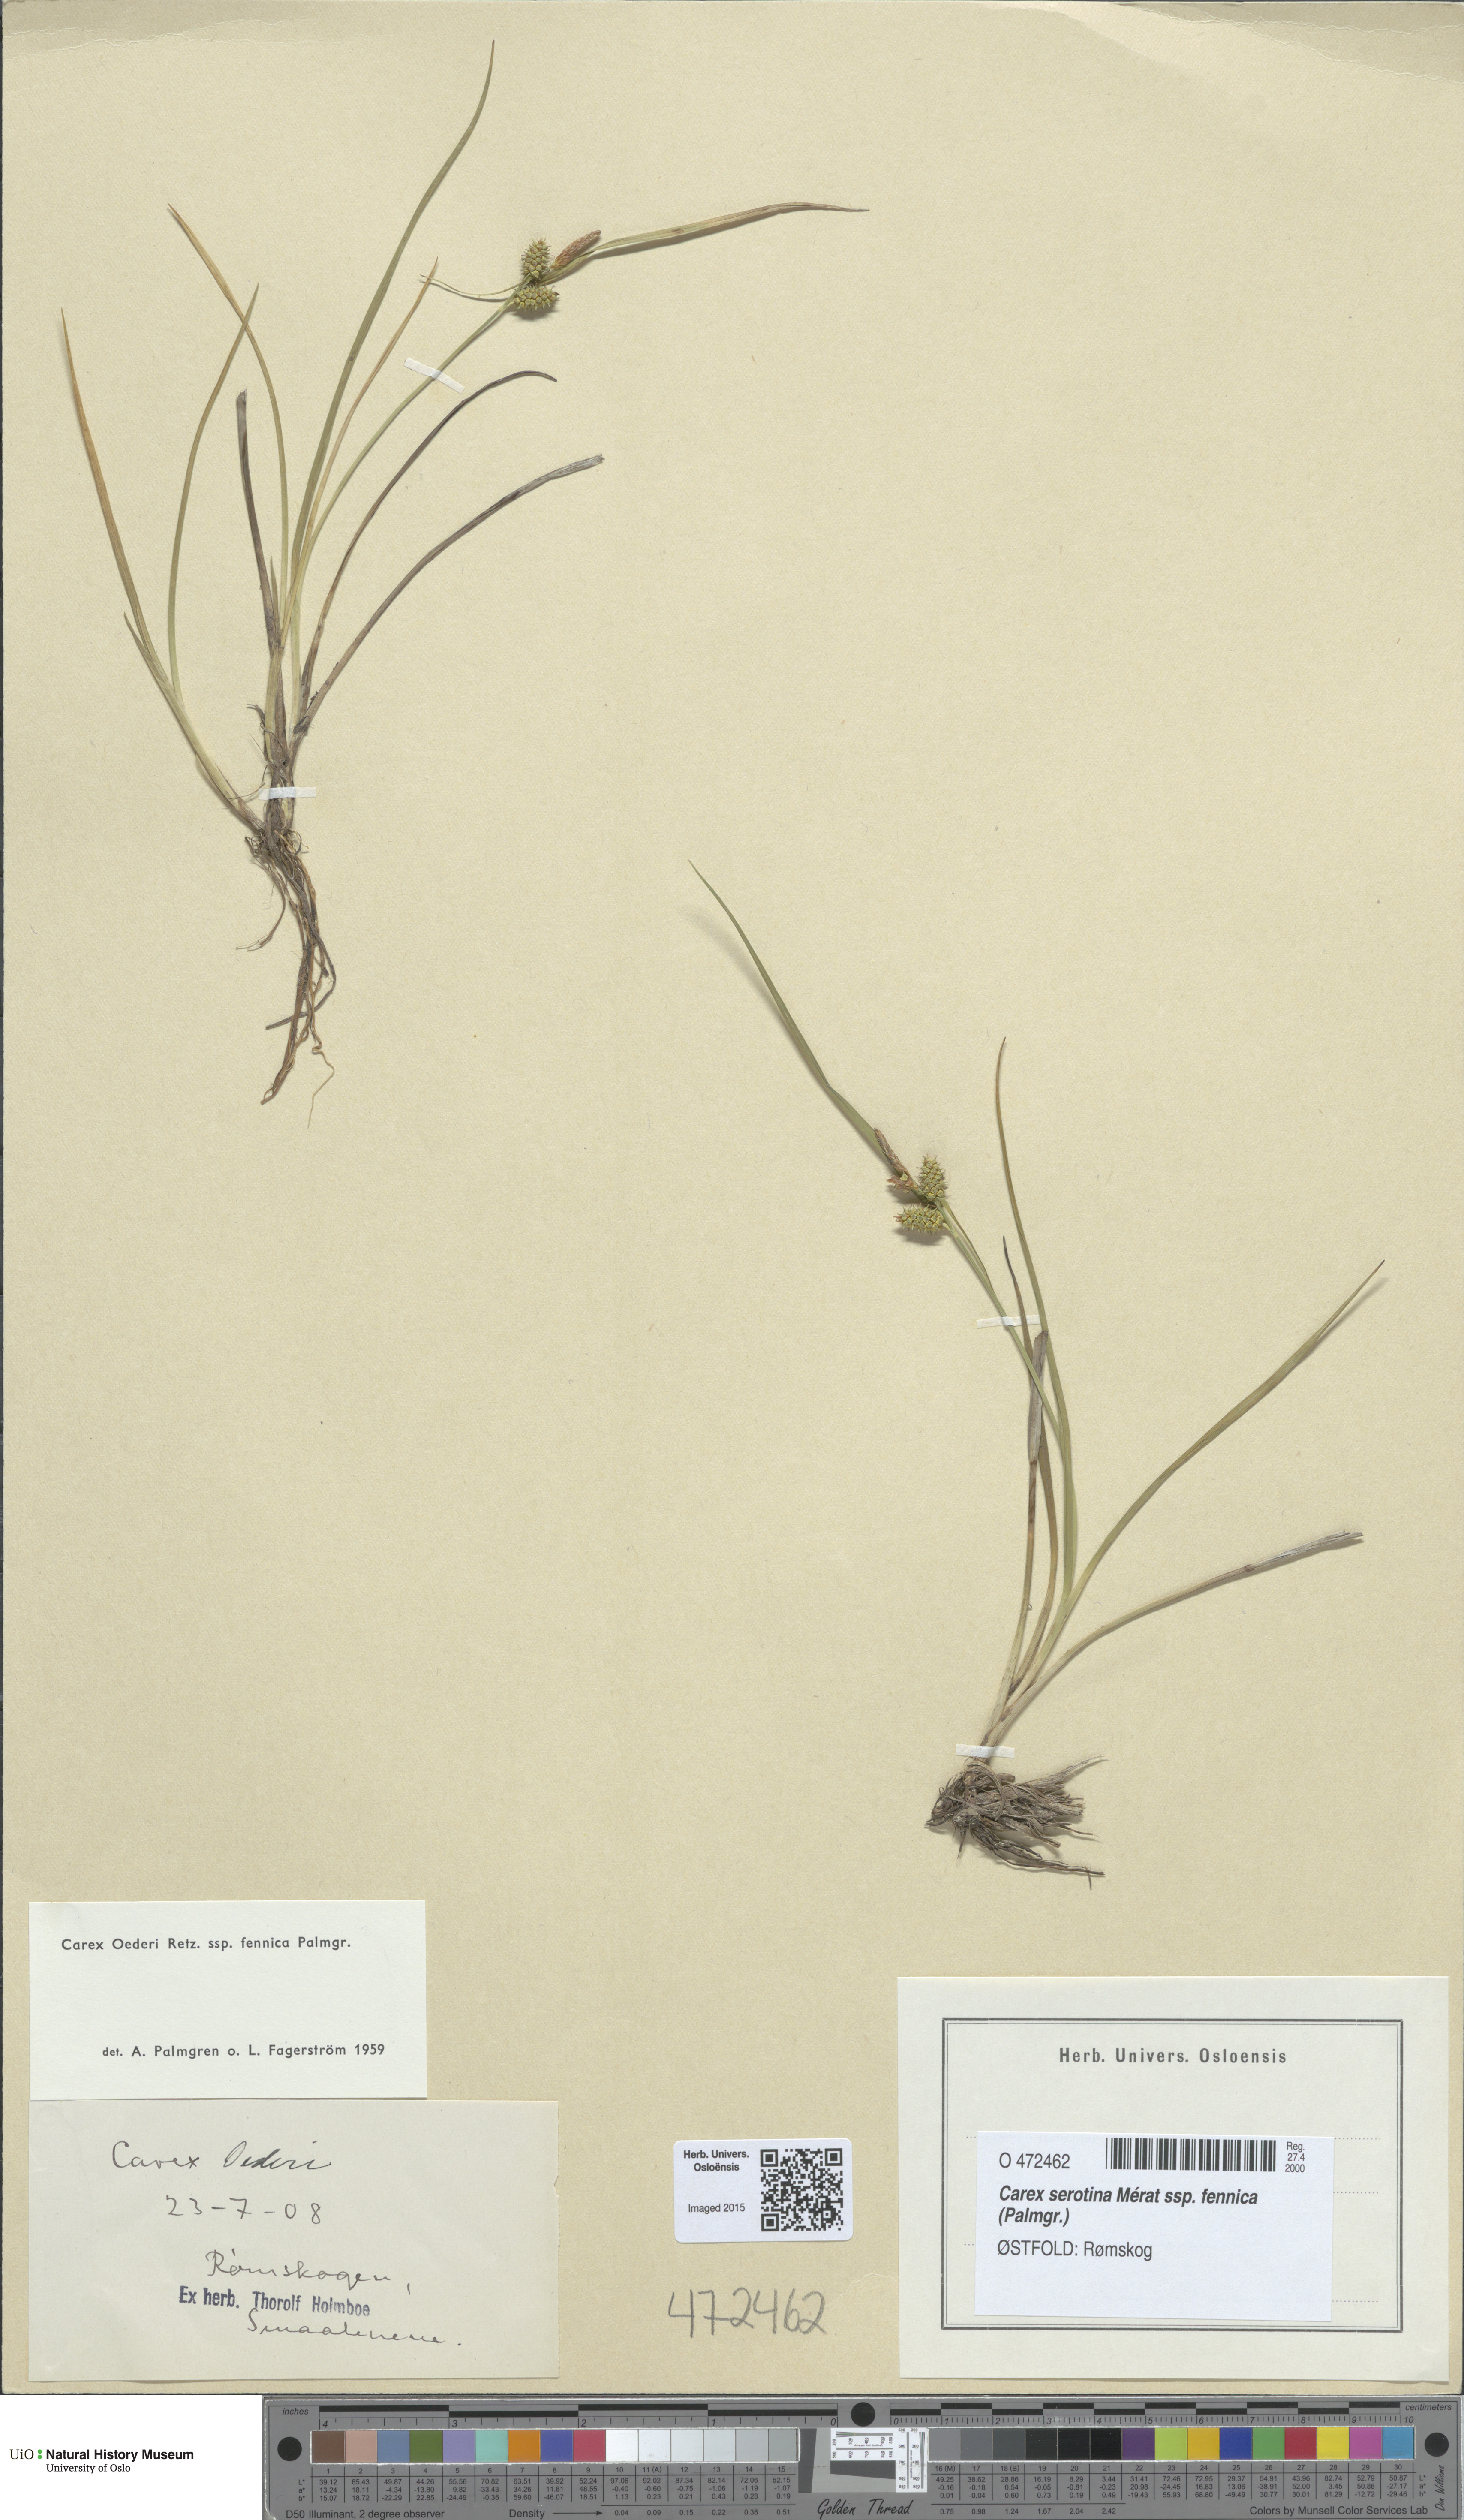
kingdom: Plantae
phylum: Tracheophyta
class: Liliopsida
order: Poales
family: Cyperaceae
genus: Carex
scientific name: Carex
